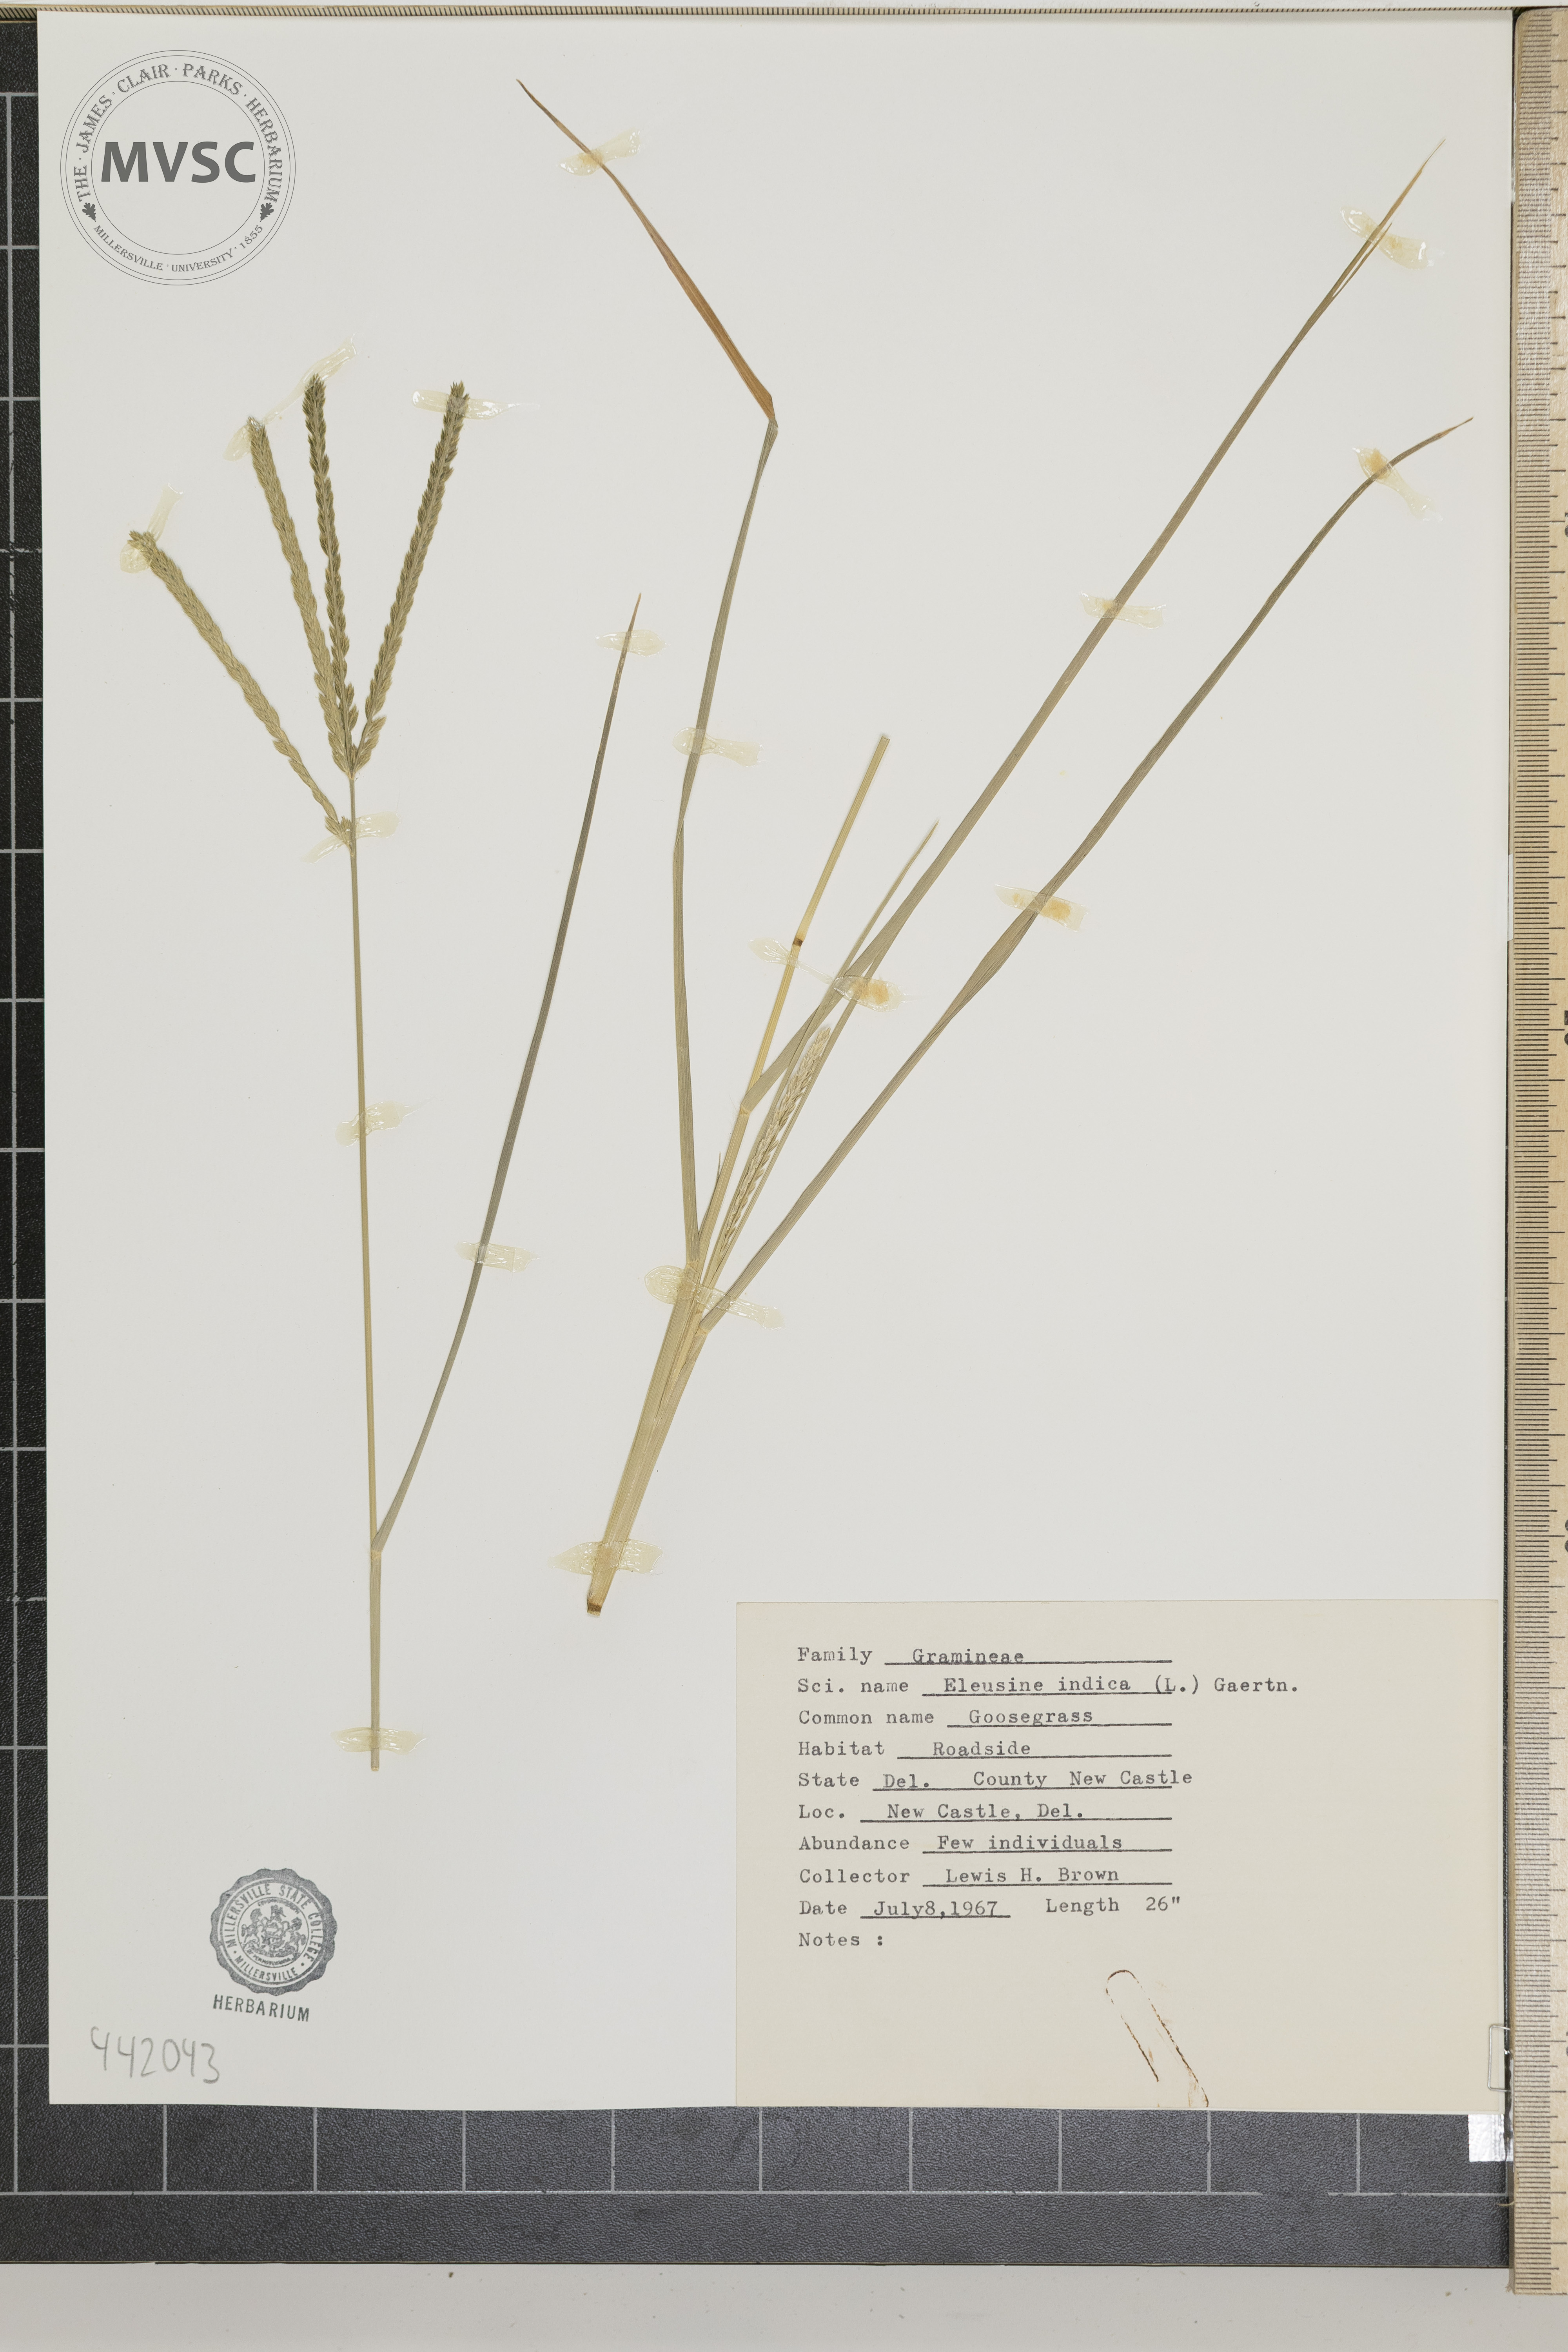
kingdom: Plantae
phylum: Tracheophyta
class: Liliopsida
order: Poales
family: Poaceae
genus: Eleusine
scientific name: Eleusine indica
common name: Goosegrass
